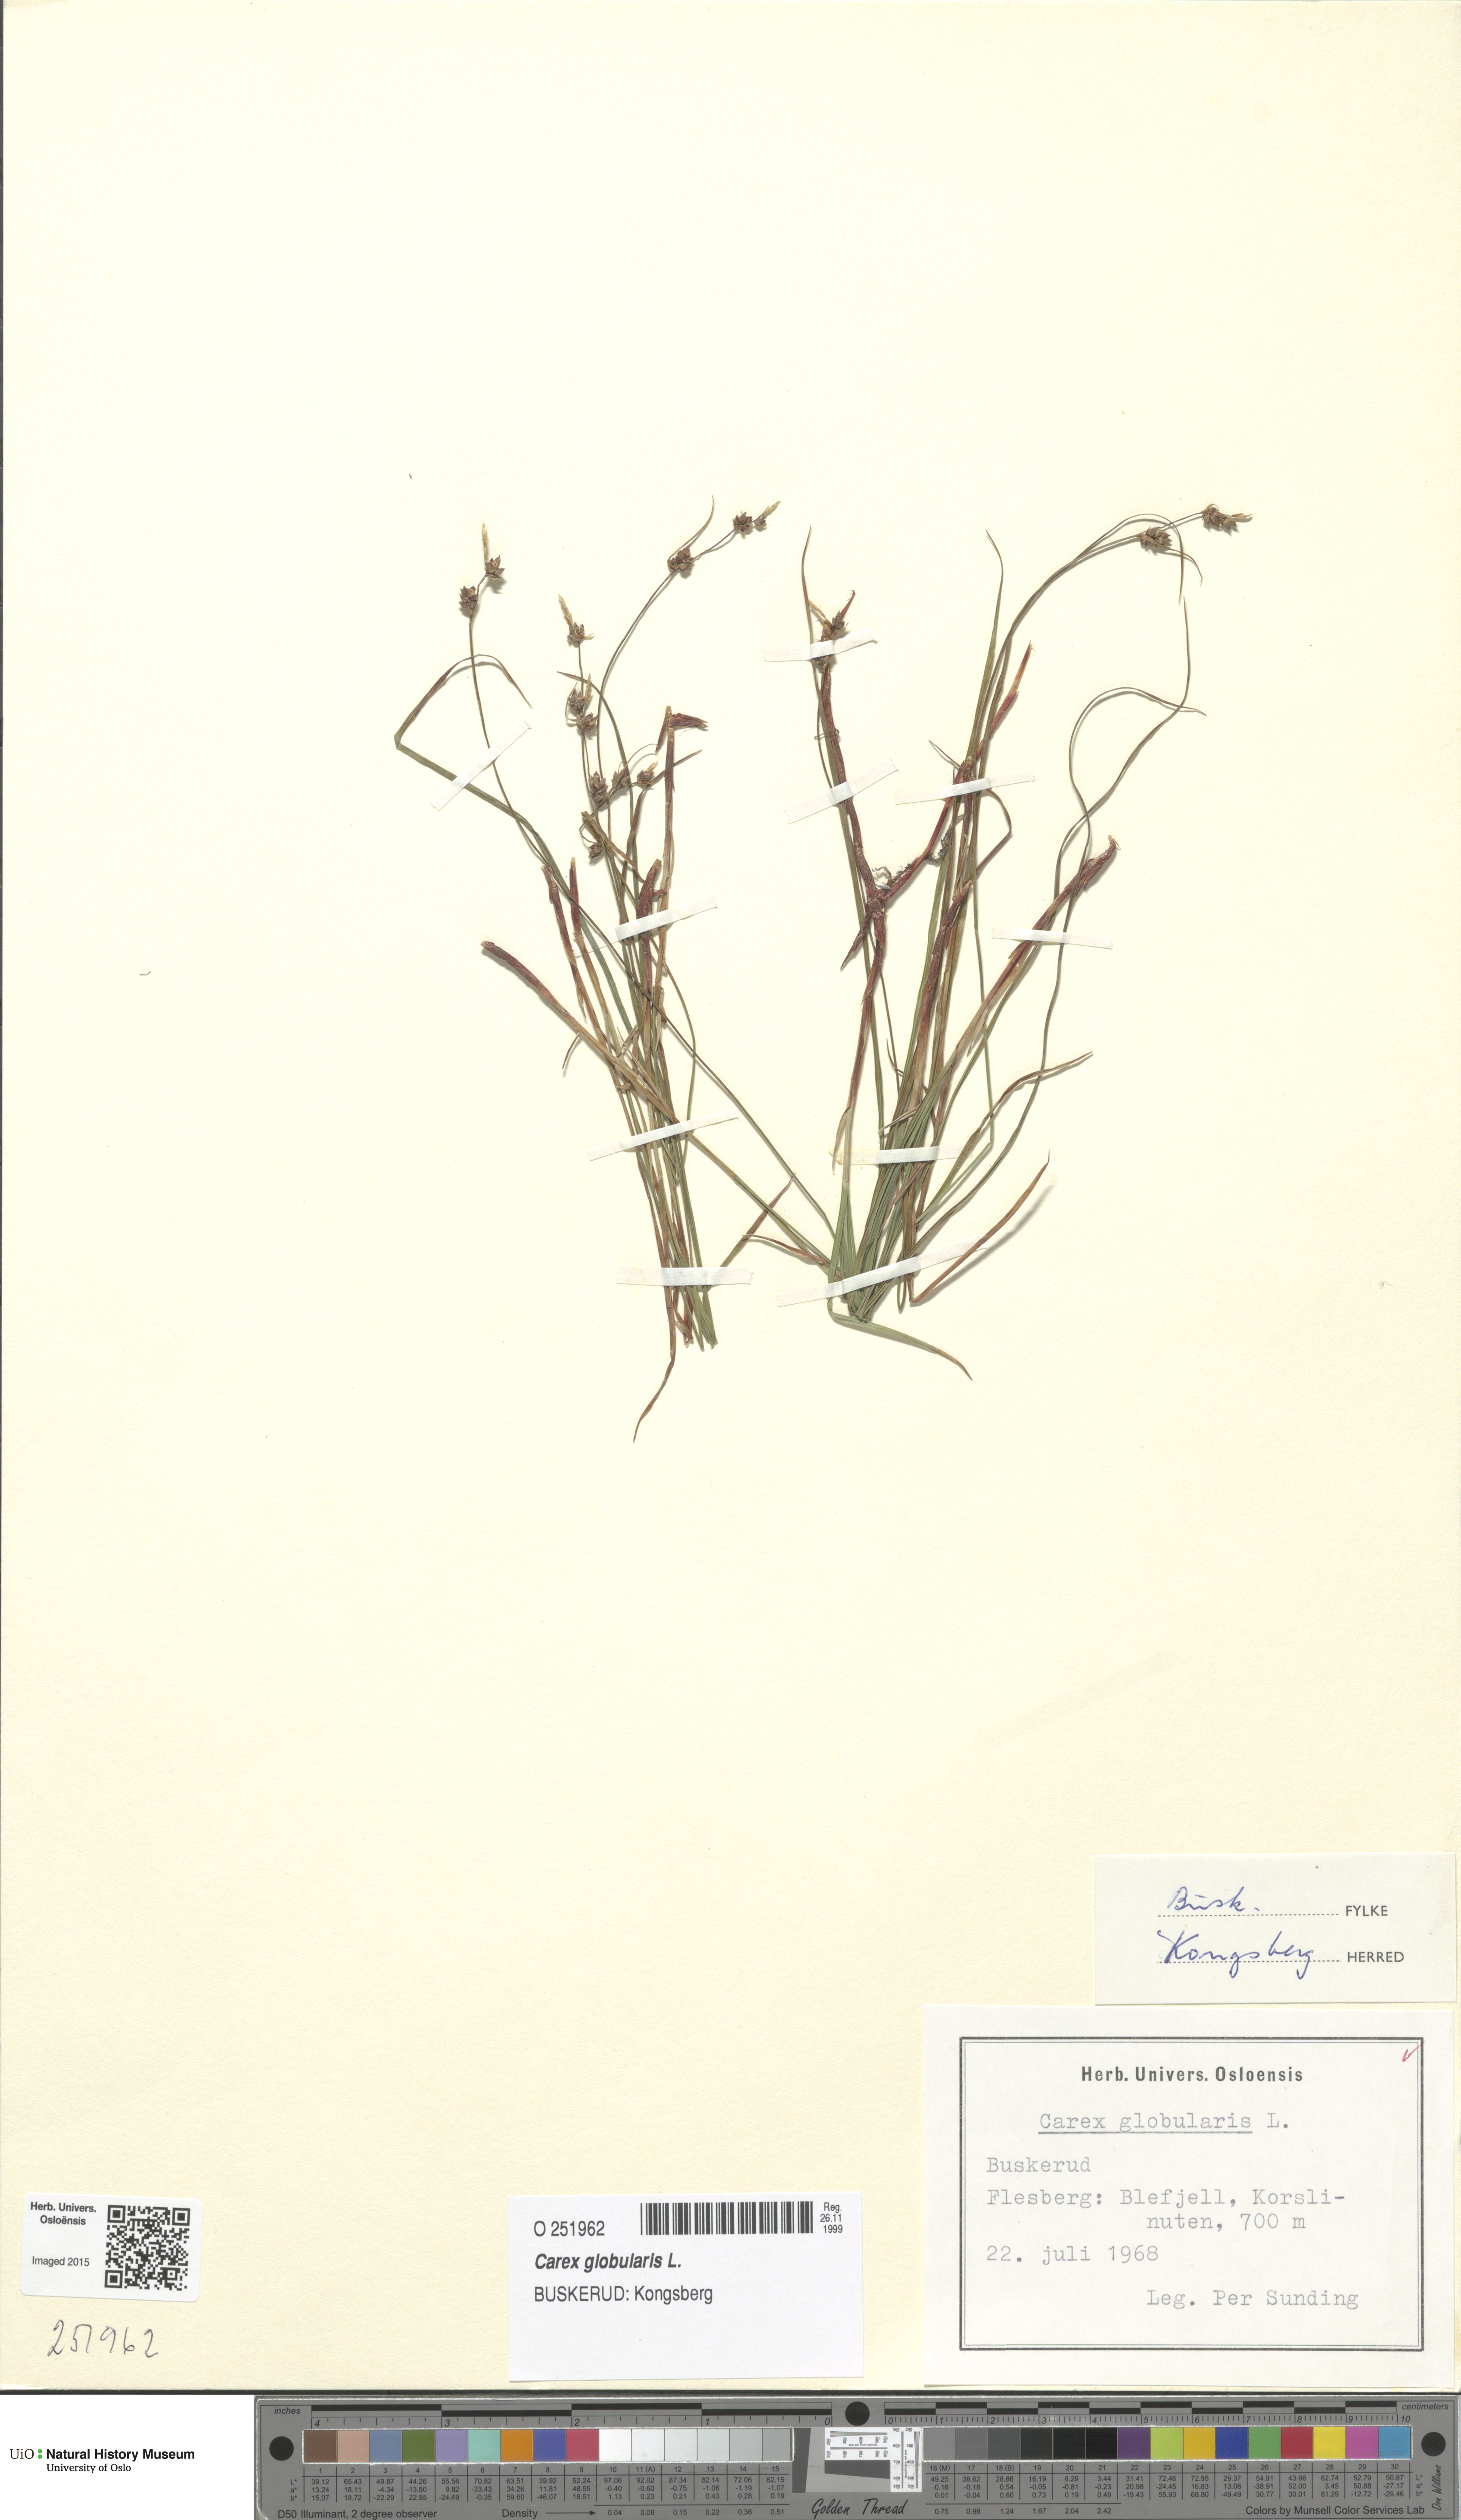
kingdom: Plantae
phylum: Tracheophyta
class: Liliopsida
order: Poales
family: Cyperaceae
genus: Carex
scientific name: Carex globularis
